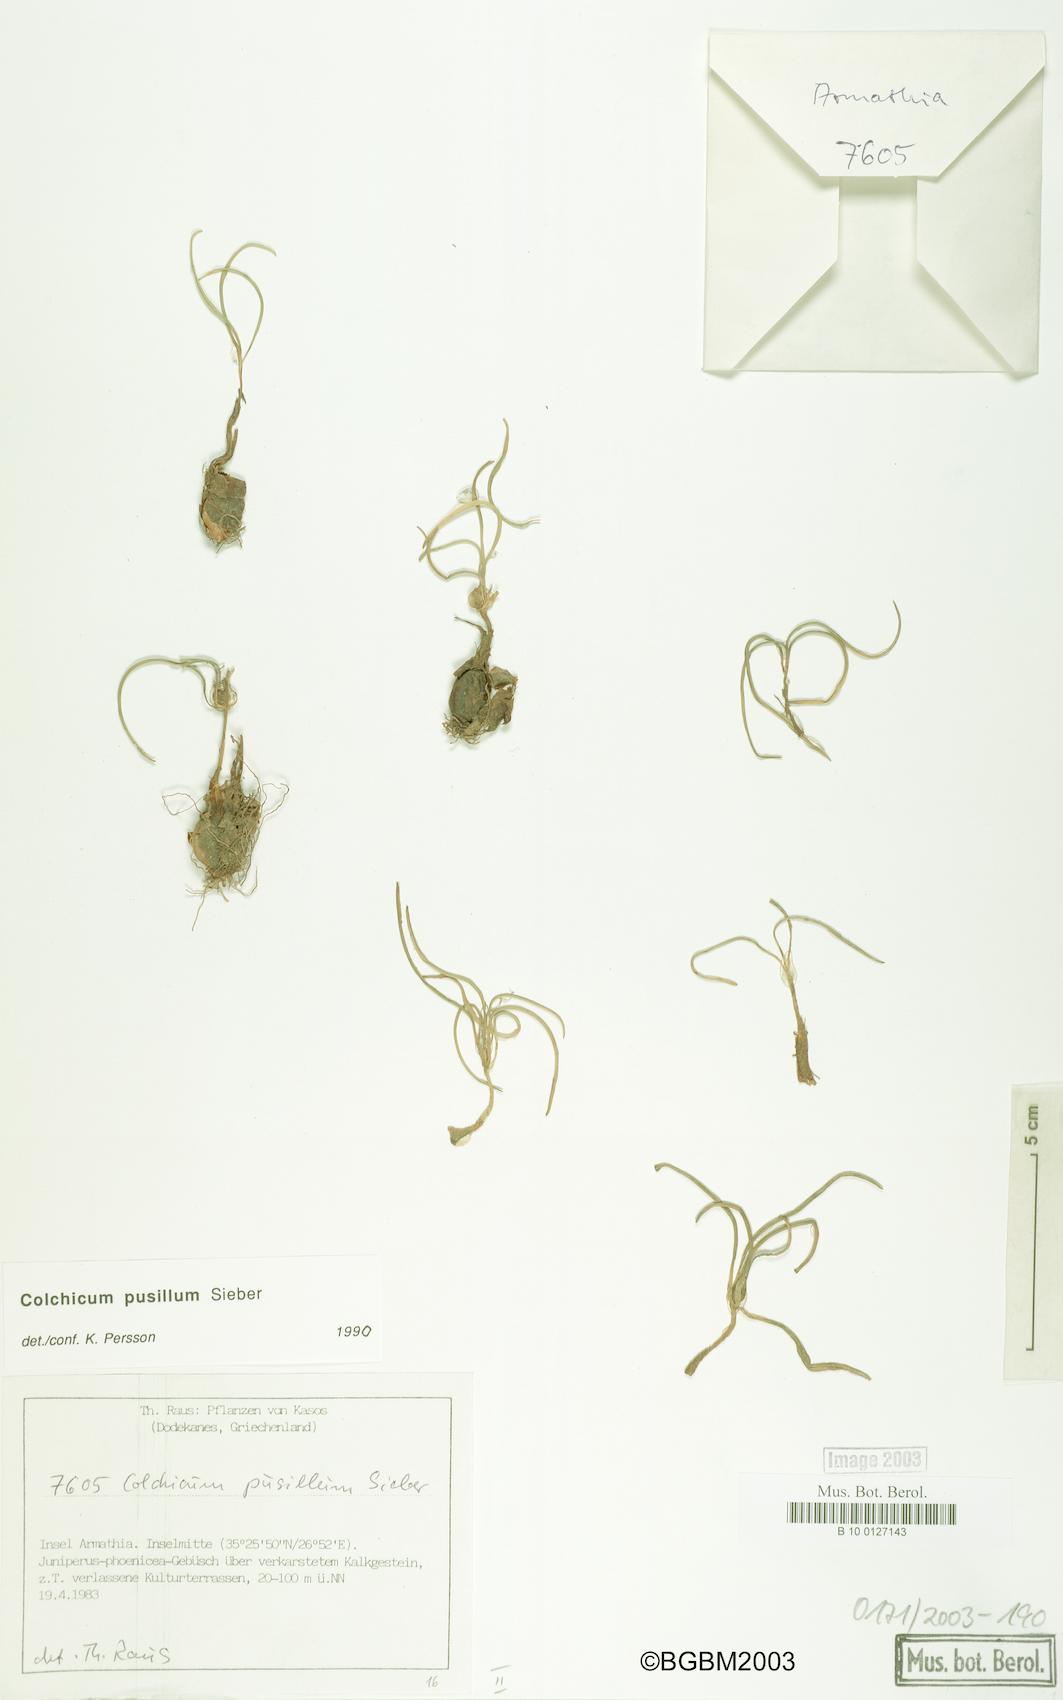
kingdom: Plantae
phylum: Tracheophyta
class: Liliopsida
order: Liliales
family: Colchicaceae
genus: Colchicum
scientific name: Colchicum pusillum
